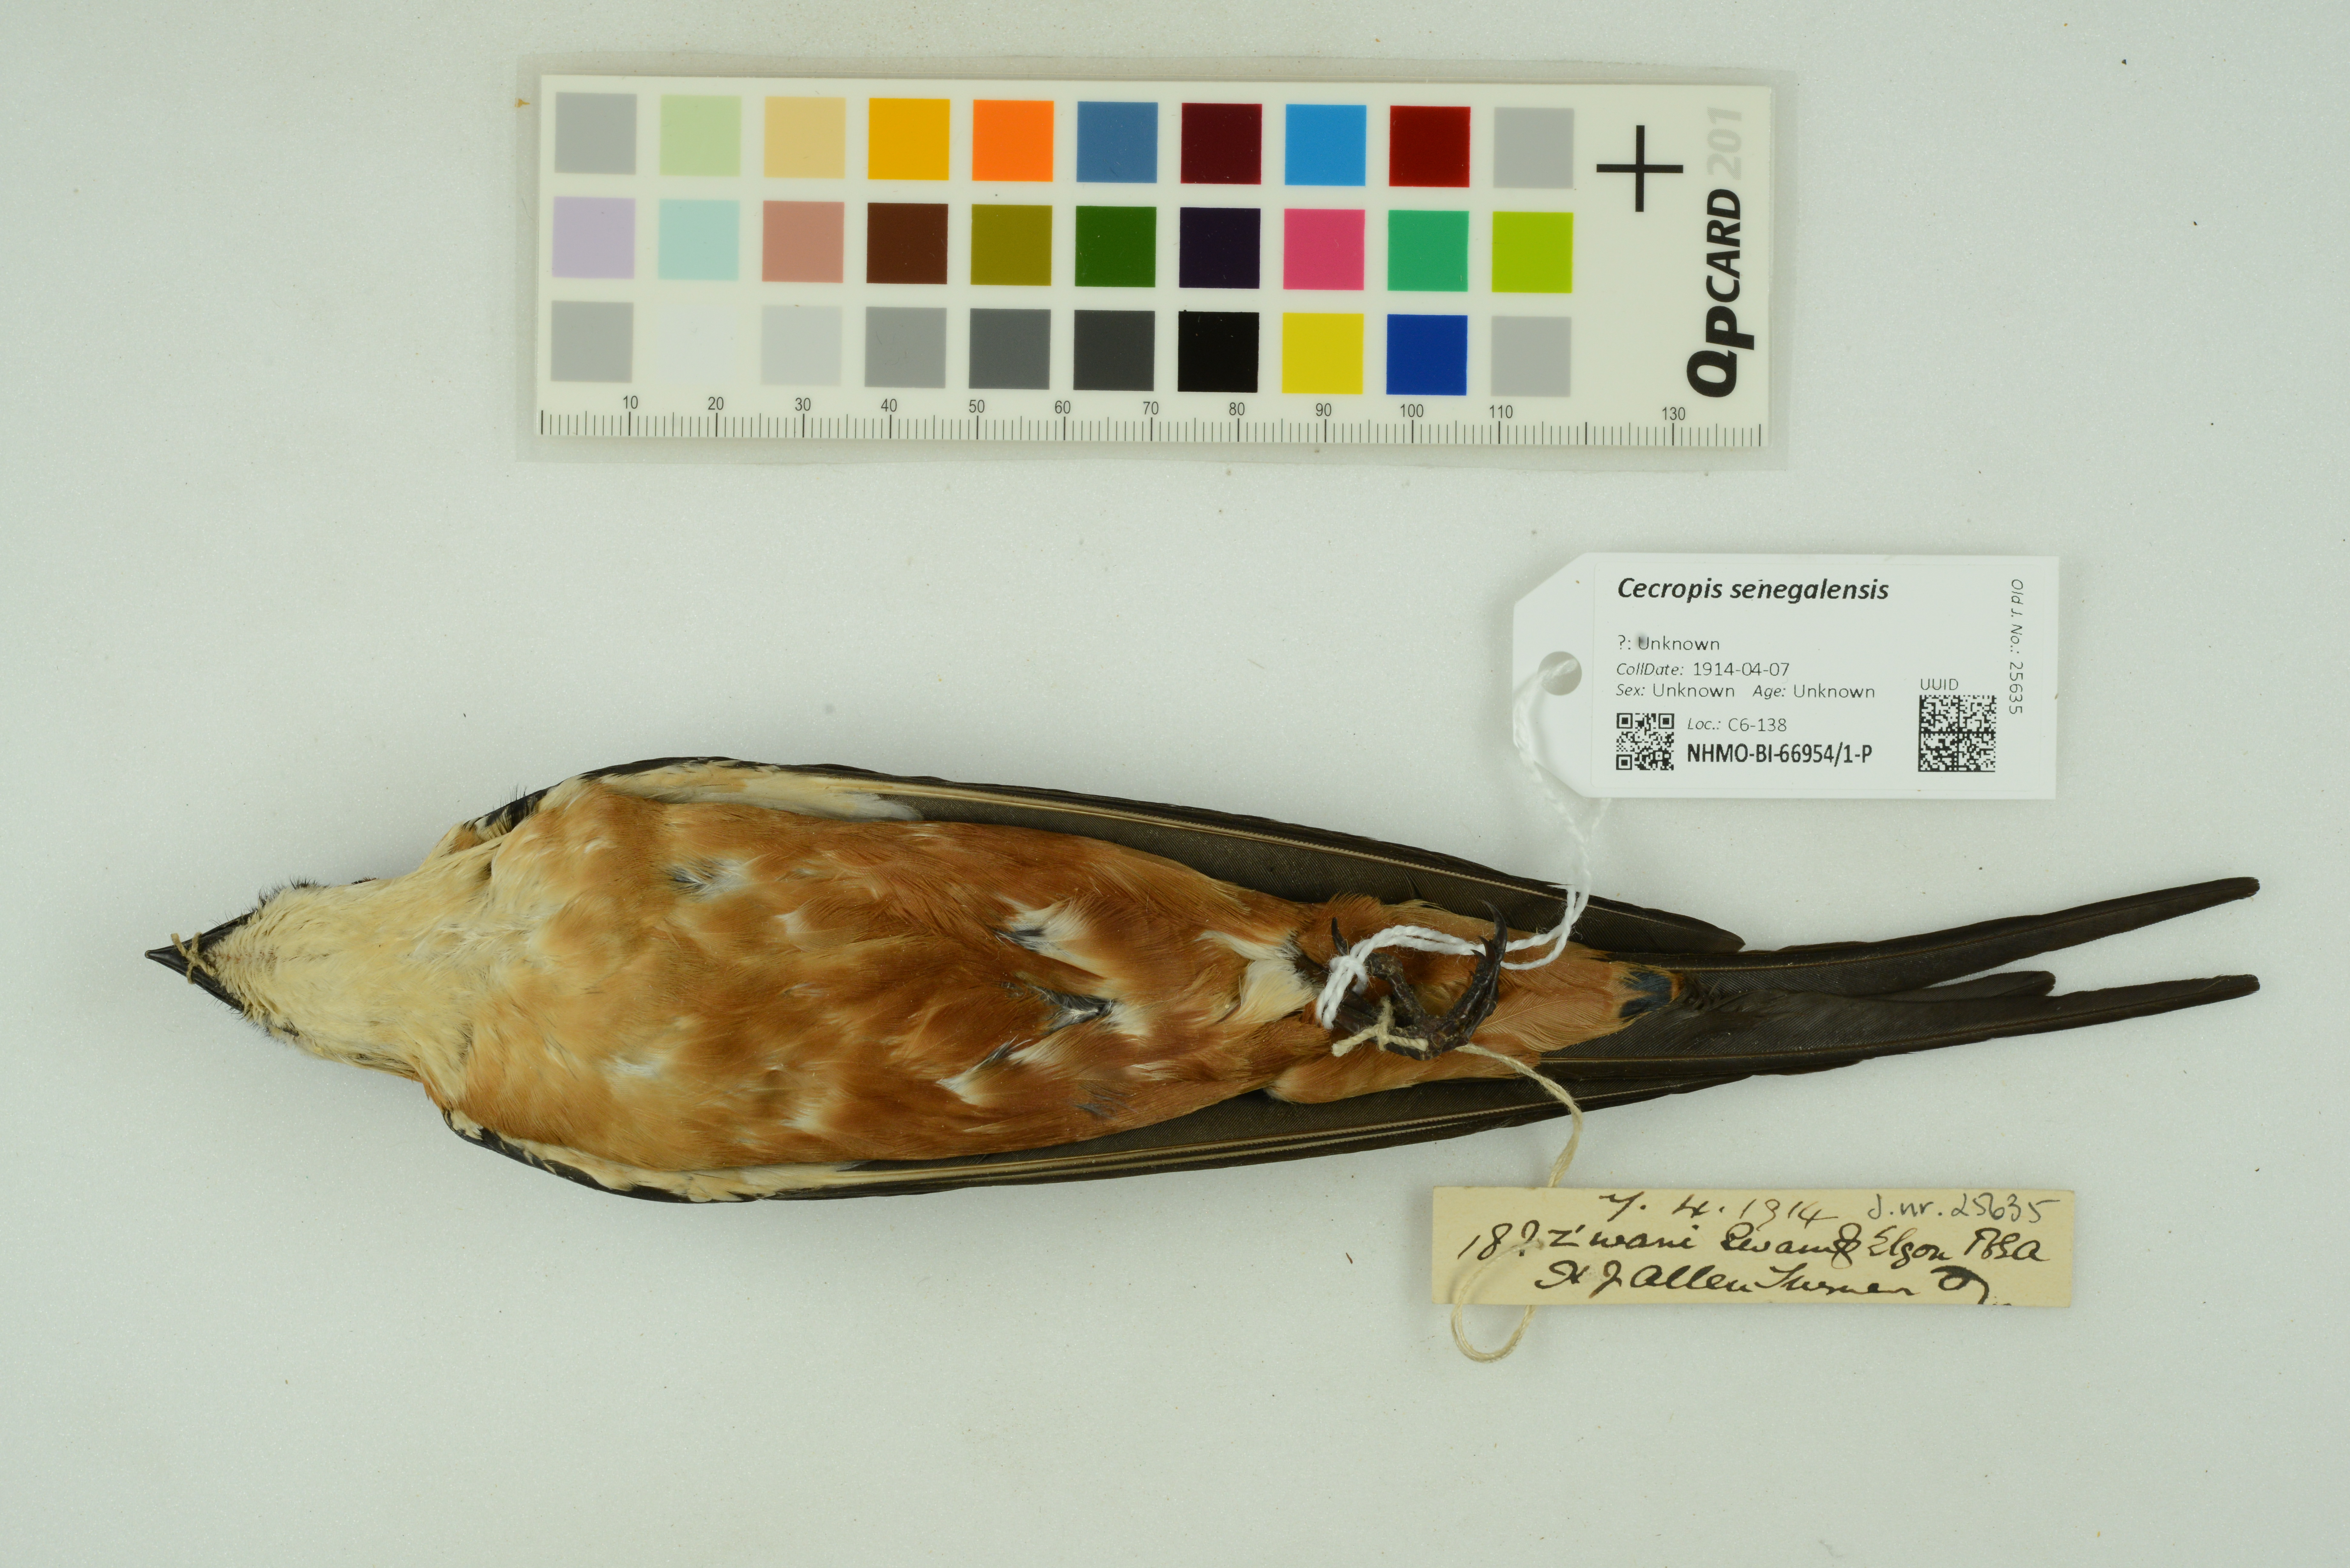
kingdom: Animalia
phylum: Chordata
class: Aves
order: Passeriformes
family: Hirundinidae
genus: Cecropis
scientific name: Cecropis senegalensis
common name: Mosque swallow
